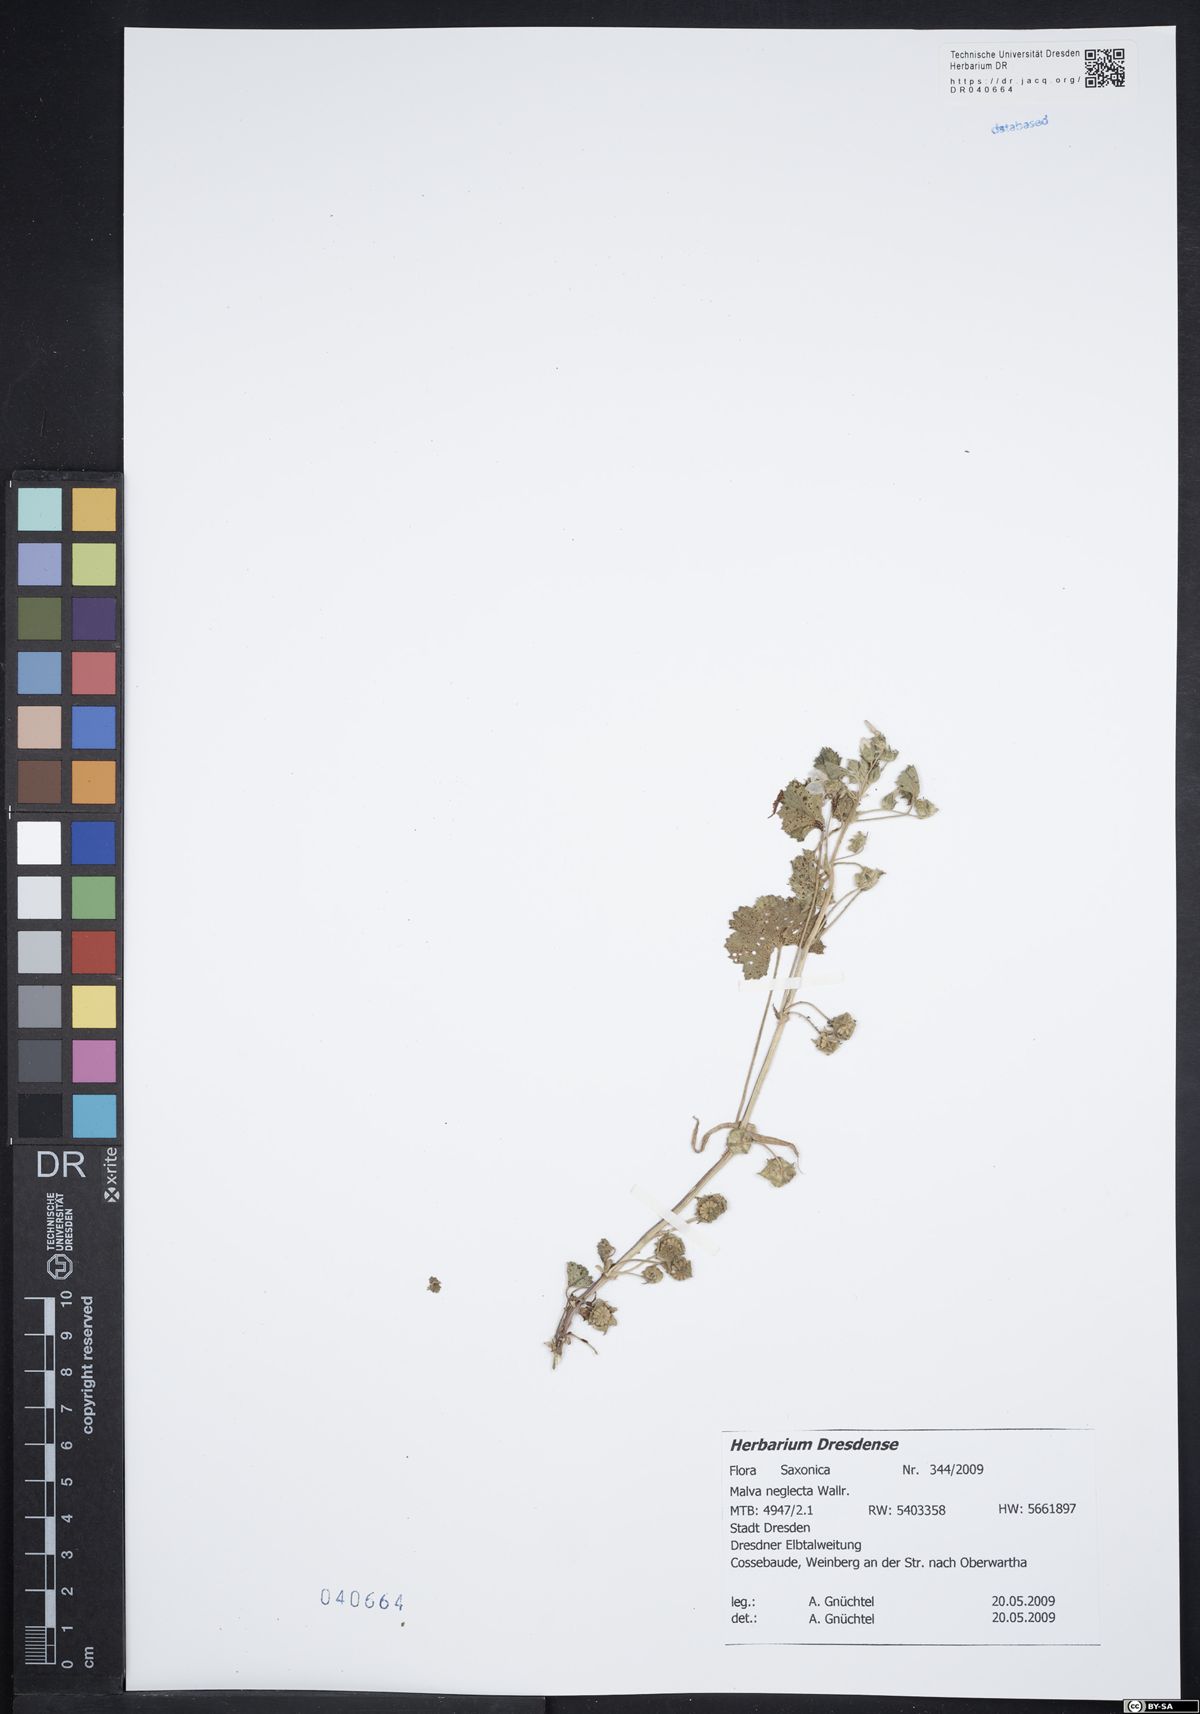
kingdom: Plantae
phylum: Tracheophyta
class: Magnoliopsida
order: Malvales
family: Malvaceae
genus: Malva
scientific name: Malva neglecta
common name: Common mallow
